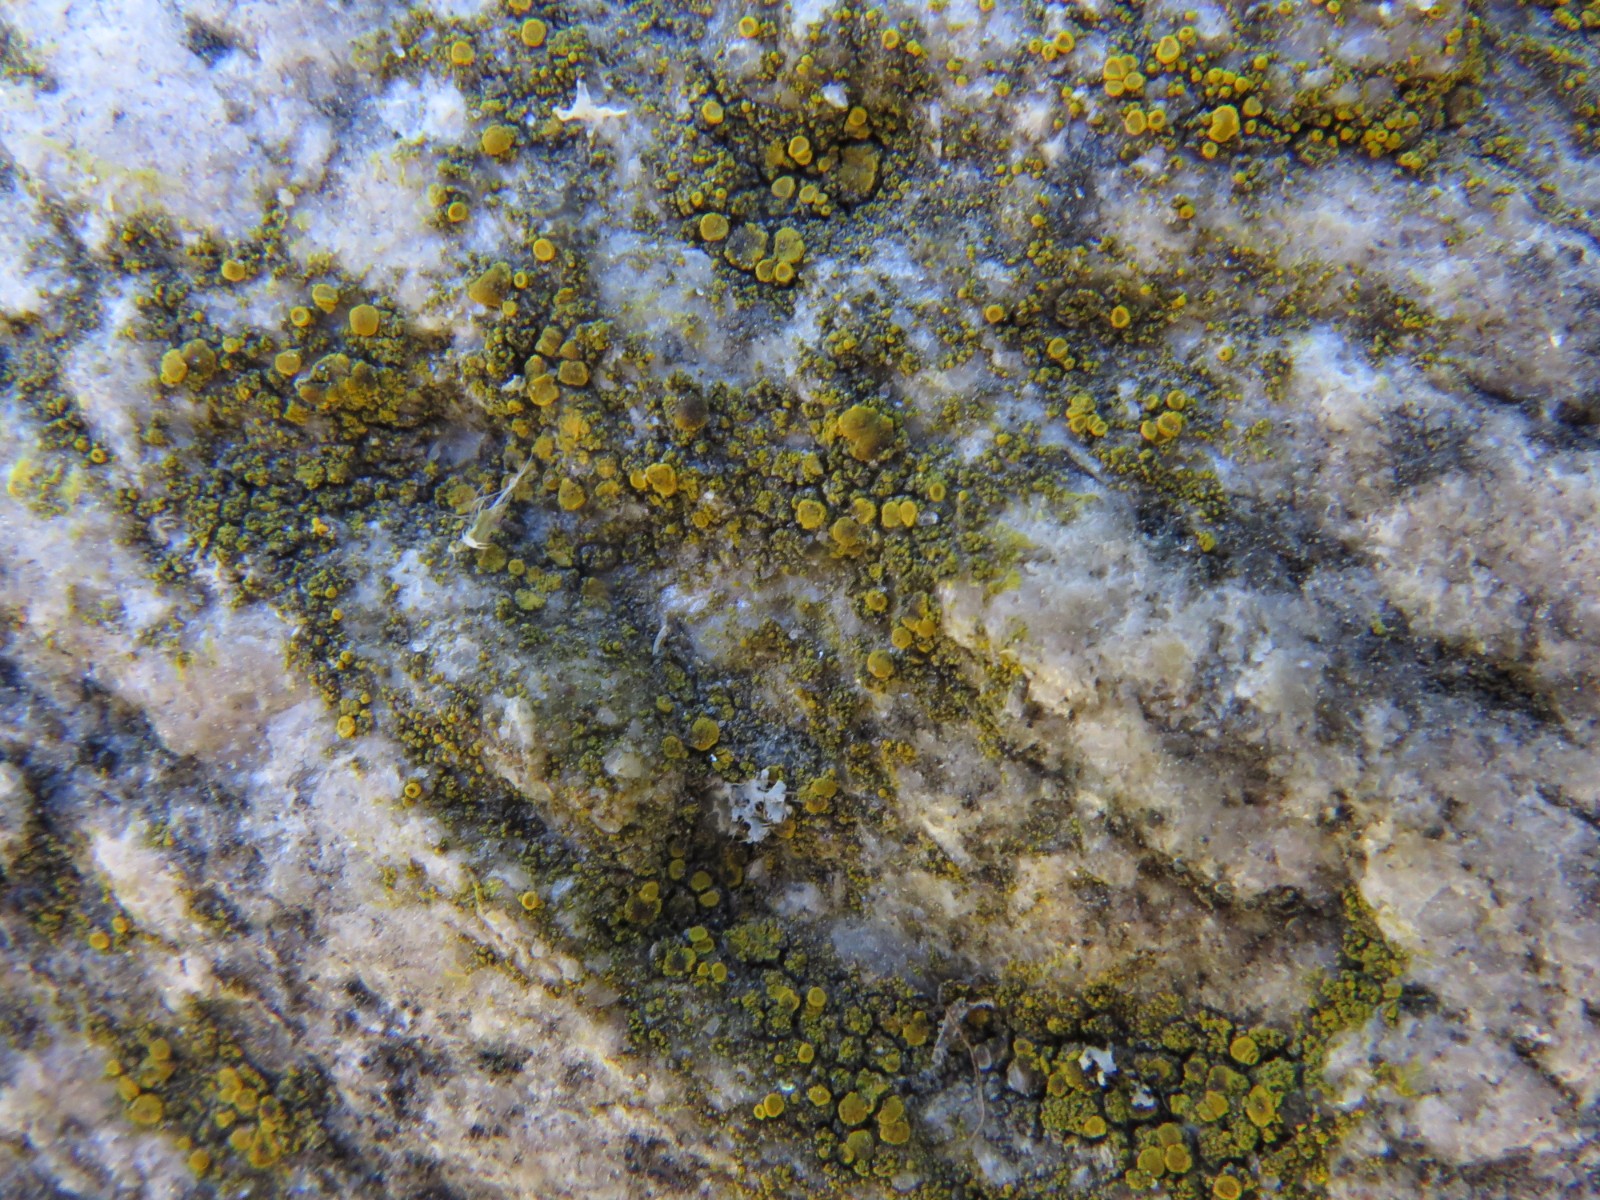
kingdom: Fungi
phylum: Ascomycota
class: Candelariomycetes
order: Candelariales
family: Candelariaceae
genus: Candelariella
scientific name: Candelariella vitellina
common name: almindelig æggeblommelav
